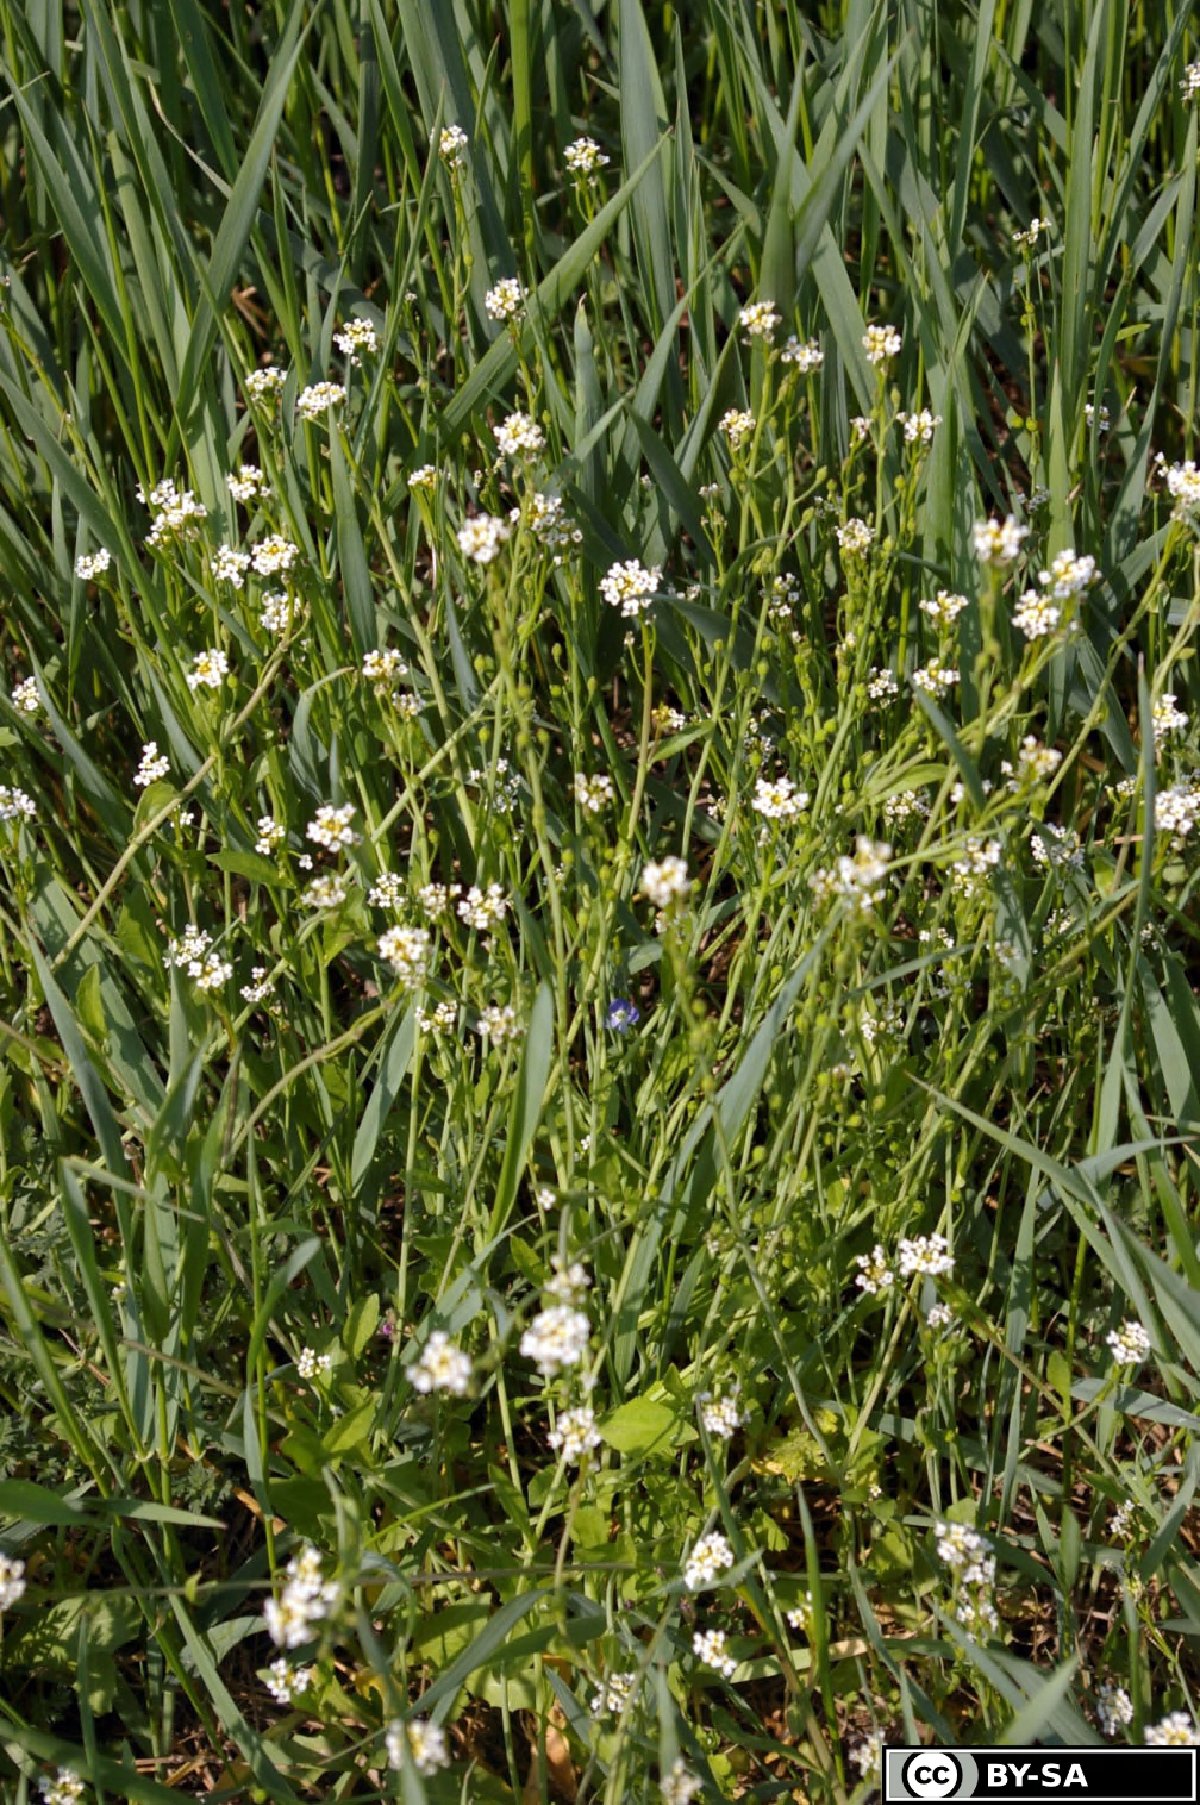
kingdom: Plantae
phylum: Tracheophyta
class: Magnoliopsida
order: Brassicales
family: Brassicaceae
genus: Calepina
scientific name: Calepina irregularis
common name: White ballmustard
